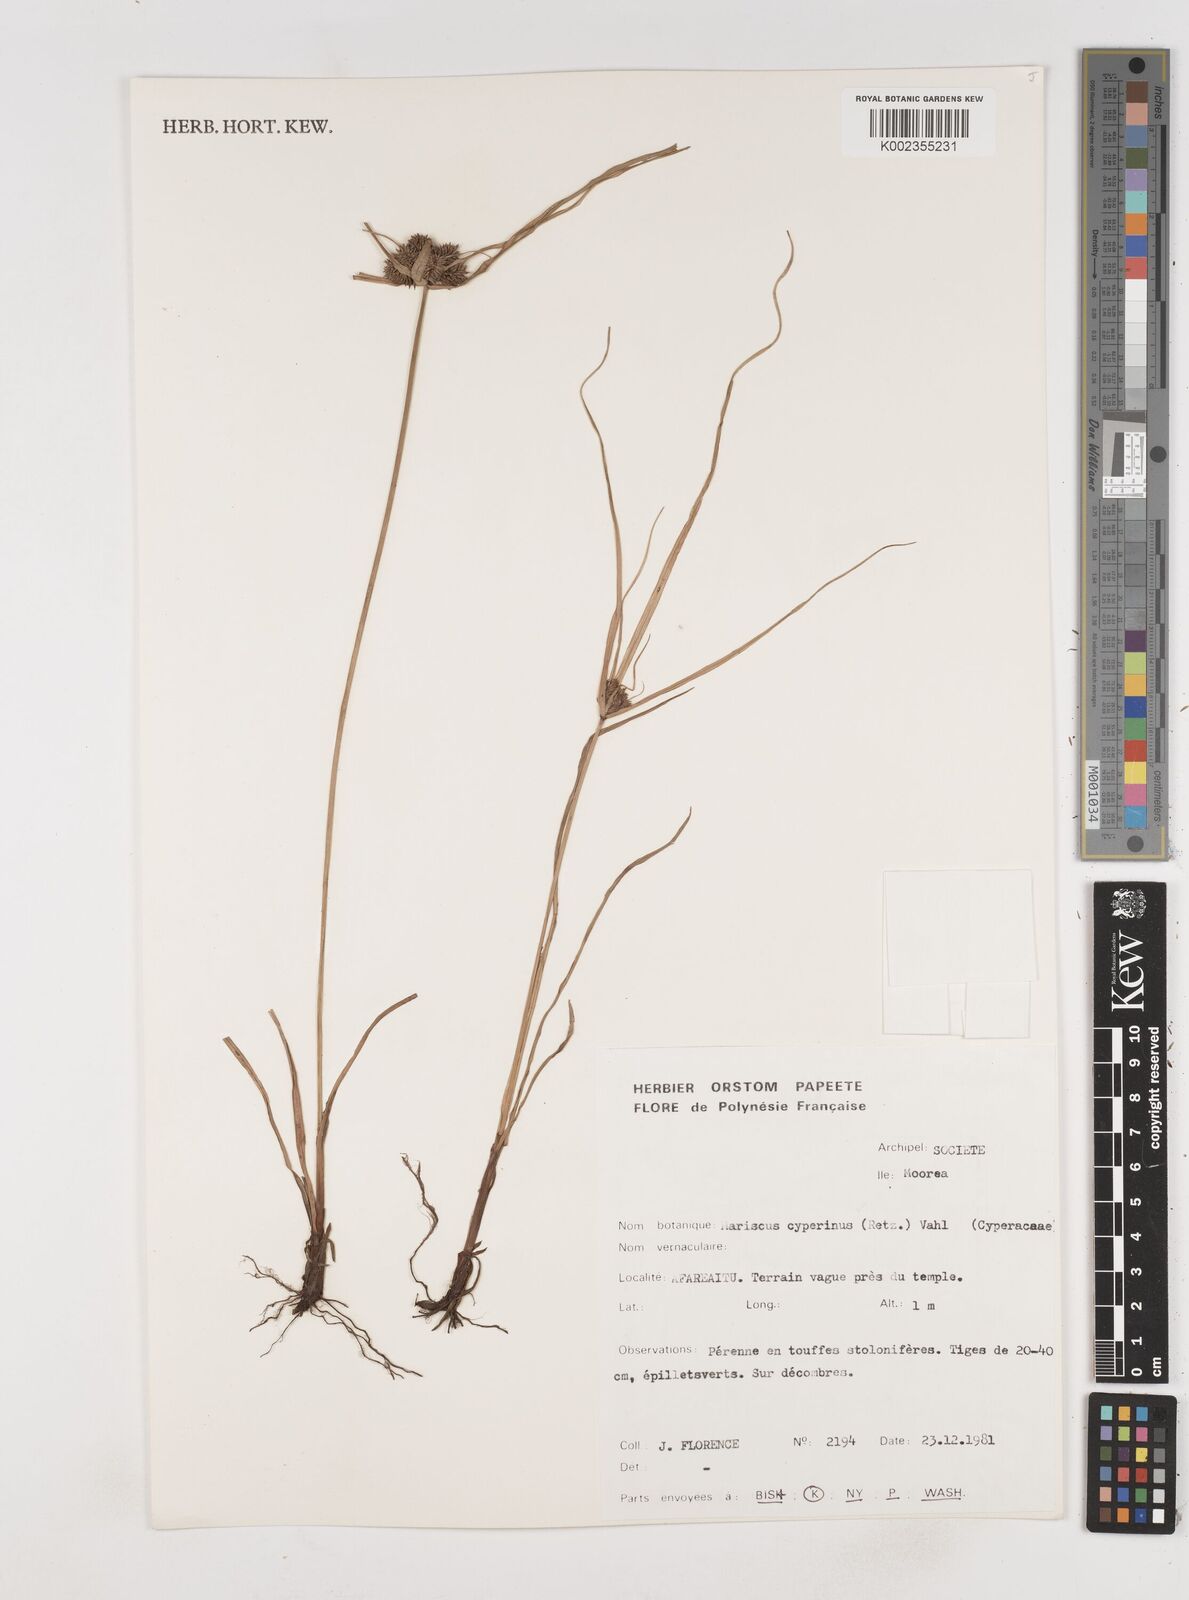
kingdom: Plantae
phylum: Tracheophyta
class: Liliopsida
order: Poales
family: Cyperaceae
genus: Cyperus
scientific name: Cyperus cyperinus
